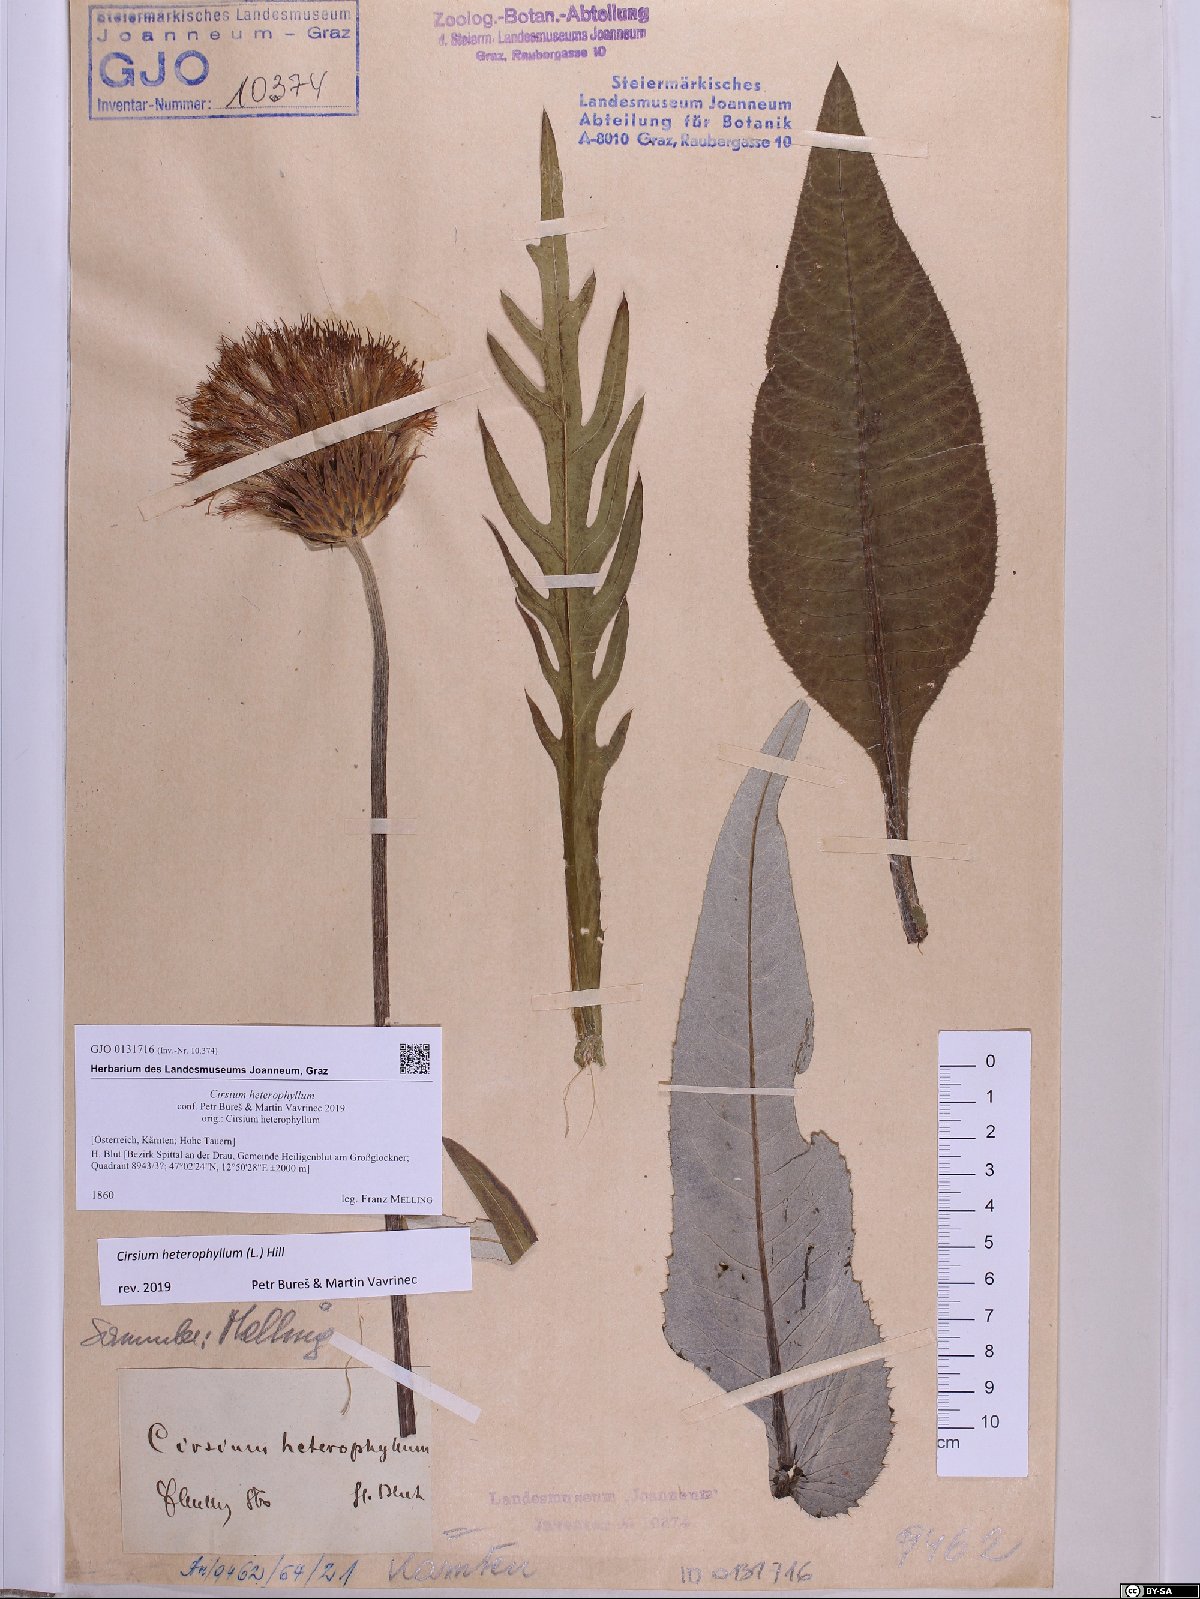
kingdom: Plantae
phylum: Tracheophyta
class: Magnoliopsida
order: Asterales
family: Asteraceae
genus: Cirsium
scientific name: Cirsium heterophyllum
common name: Melancholy thistle
